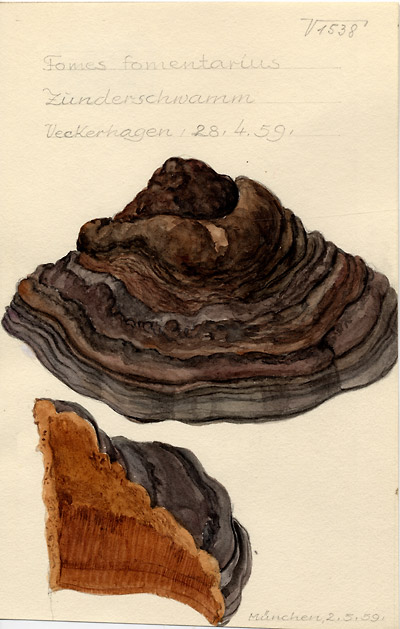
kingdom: Fungi
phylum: Basidiomycota
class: Agaricomycetes
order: Polyporales
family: Polyporaceae
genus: Fomes
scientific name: Fomes fomentarius
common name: Hoof fungus
